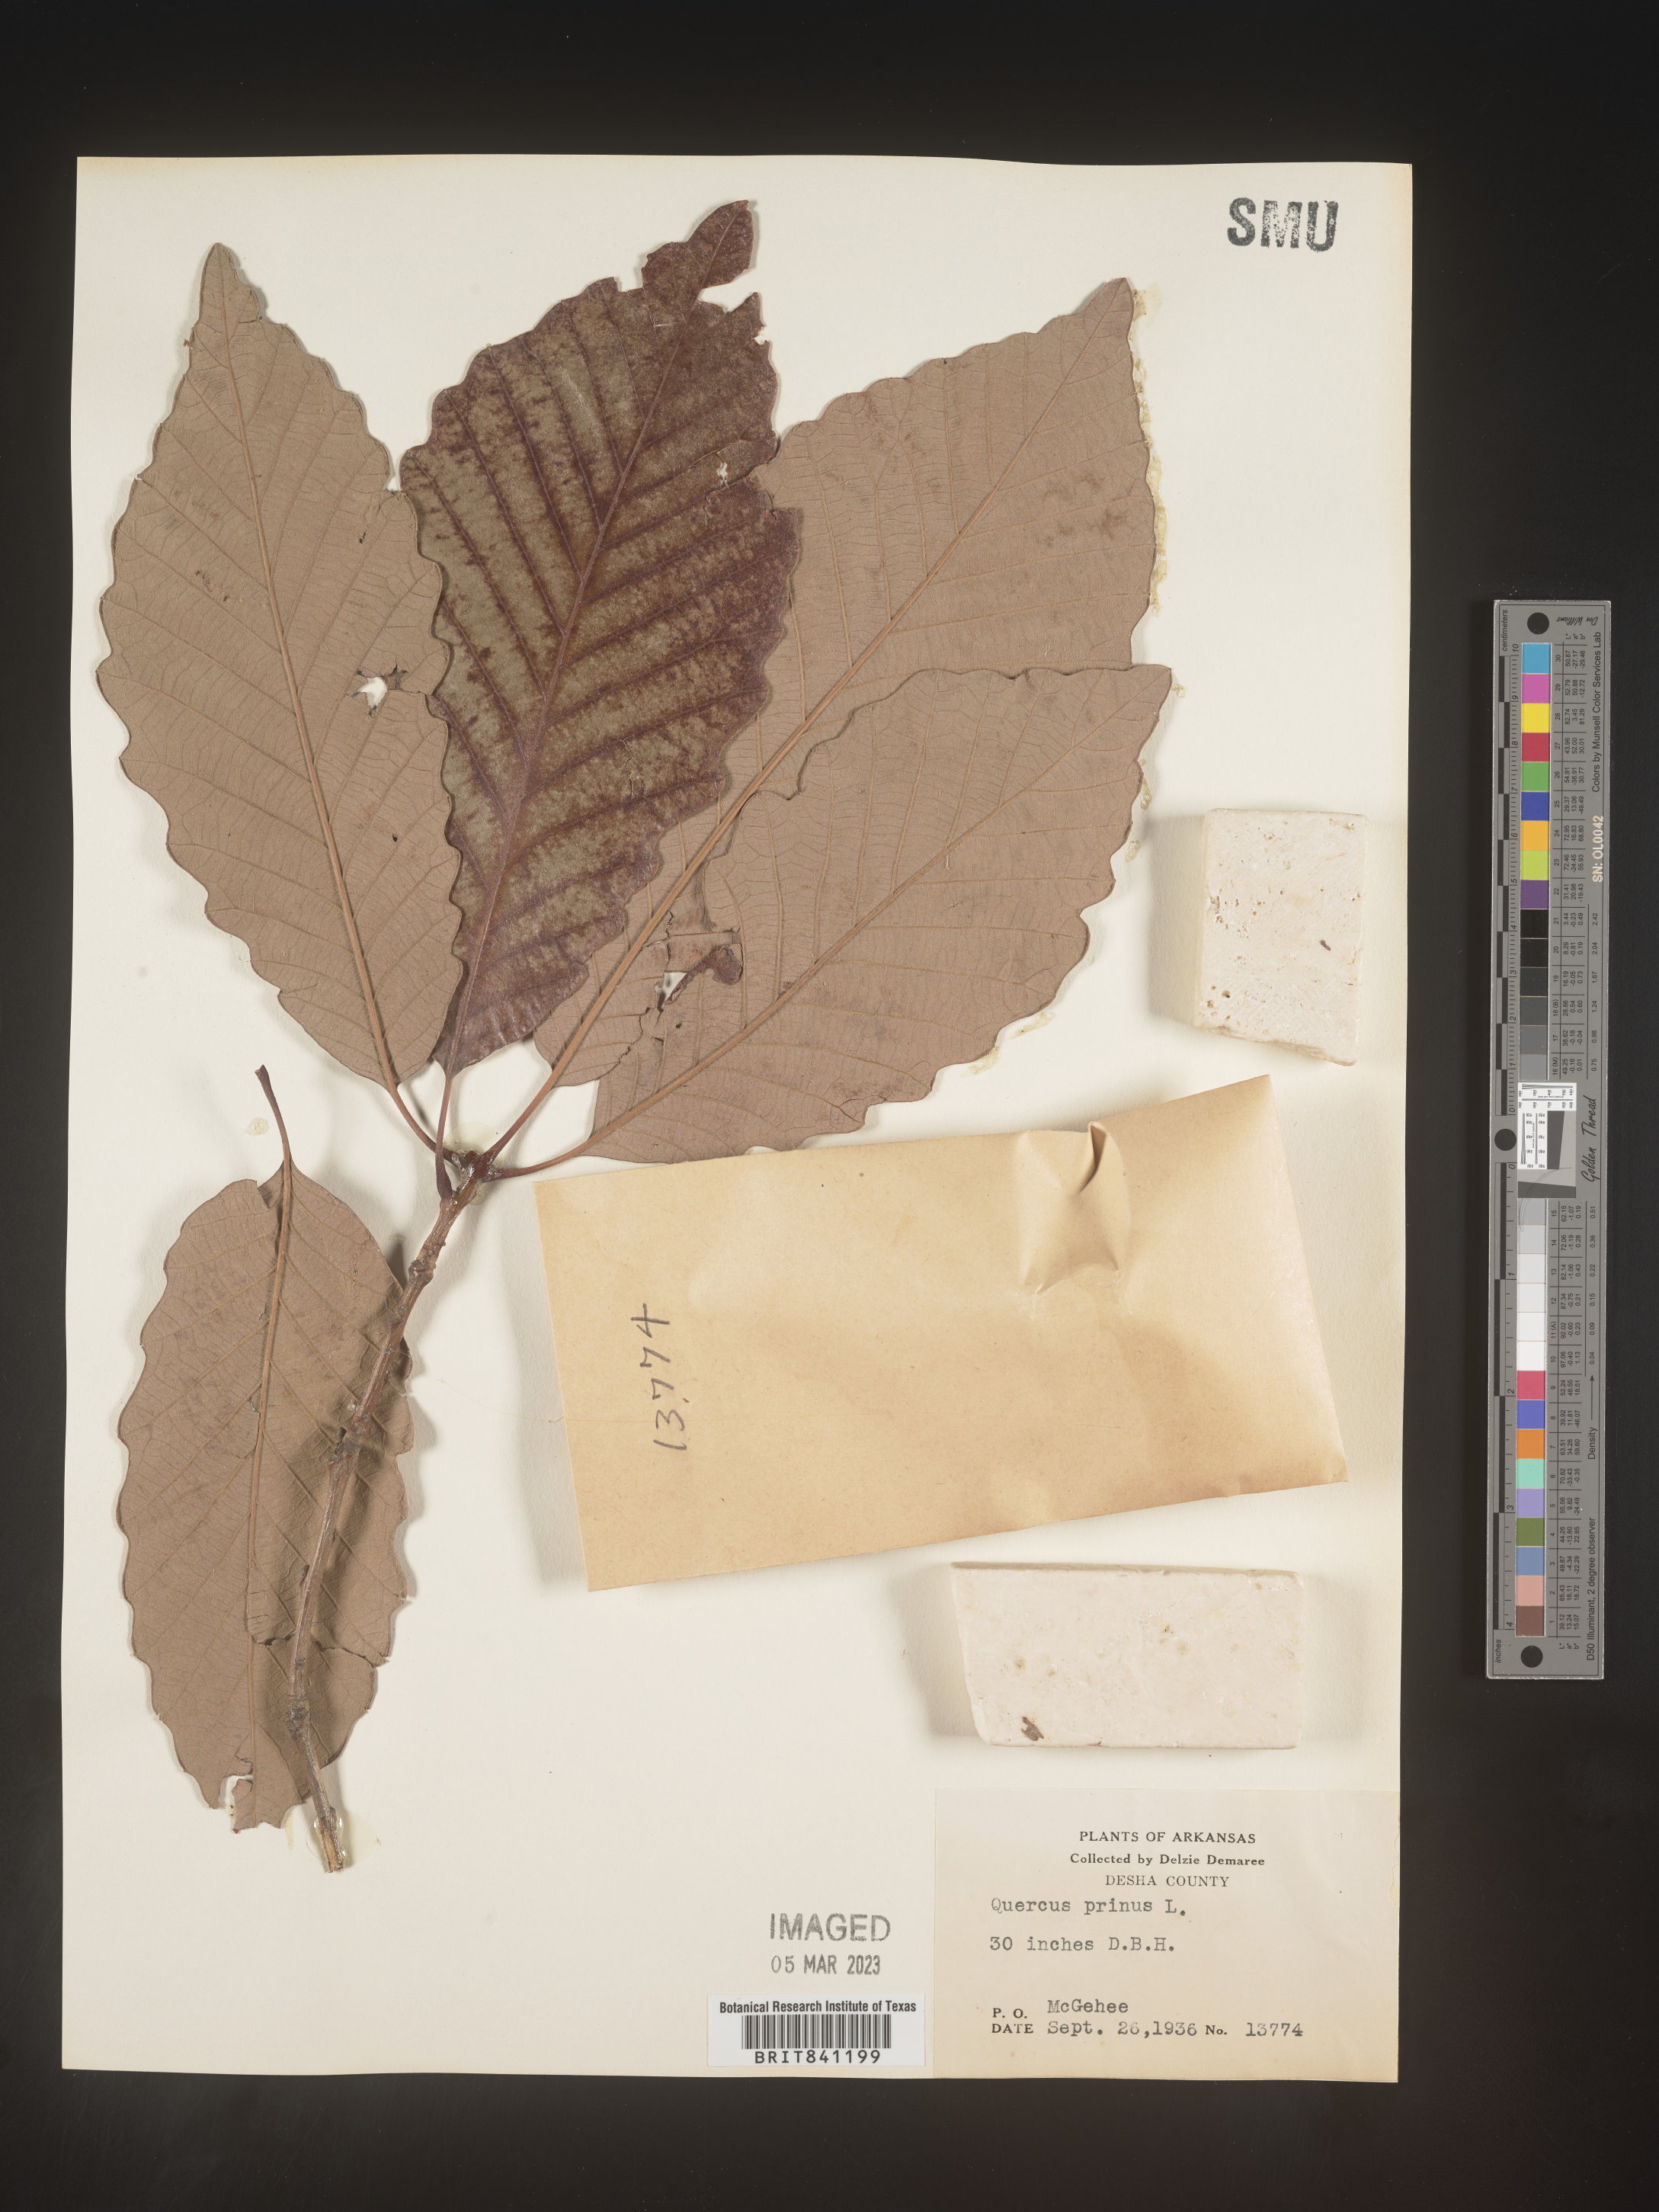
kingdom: Plantae
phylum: Tracheophyta
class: Magnoliopsida
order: Fagales
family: Fagaceae
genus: Quercus
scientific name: Quercus michauxii
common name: Swamp chestnut oak
